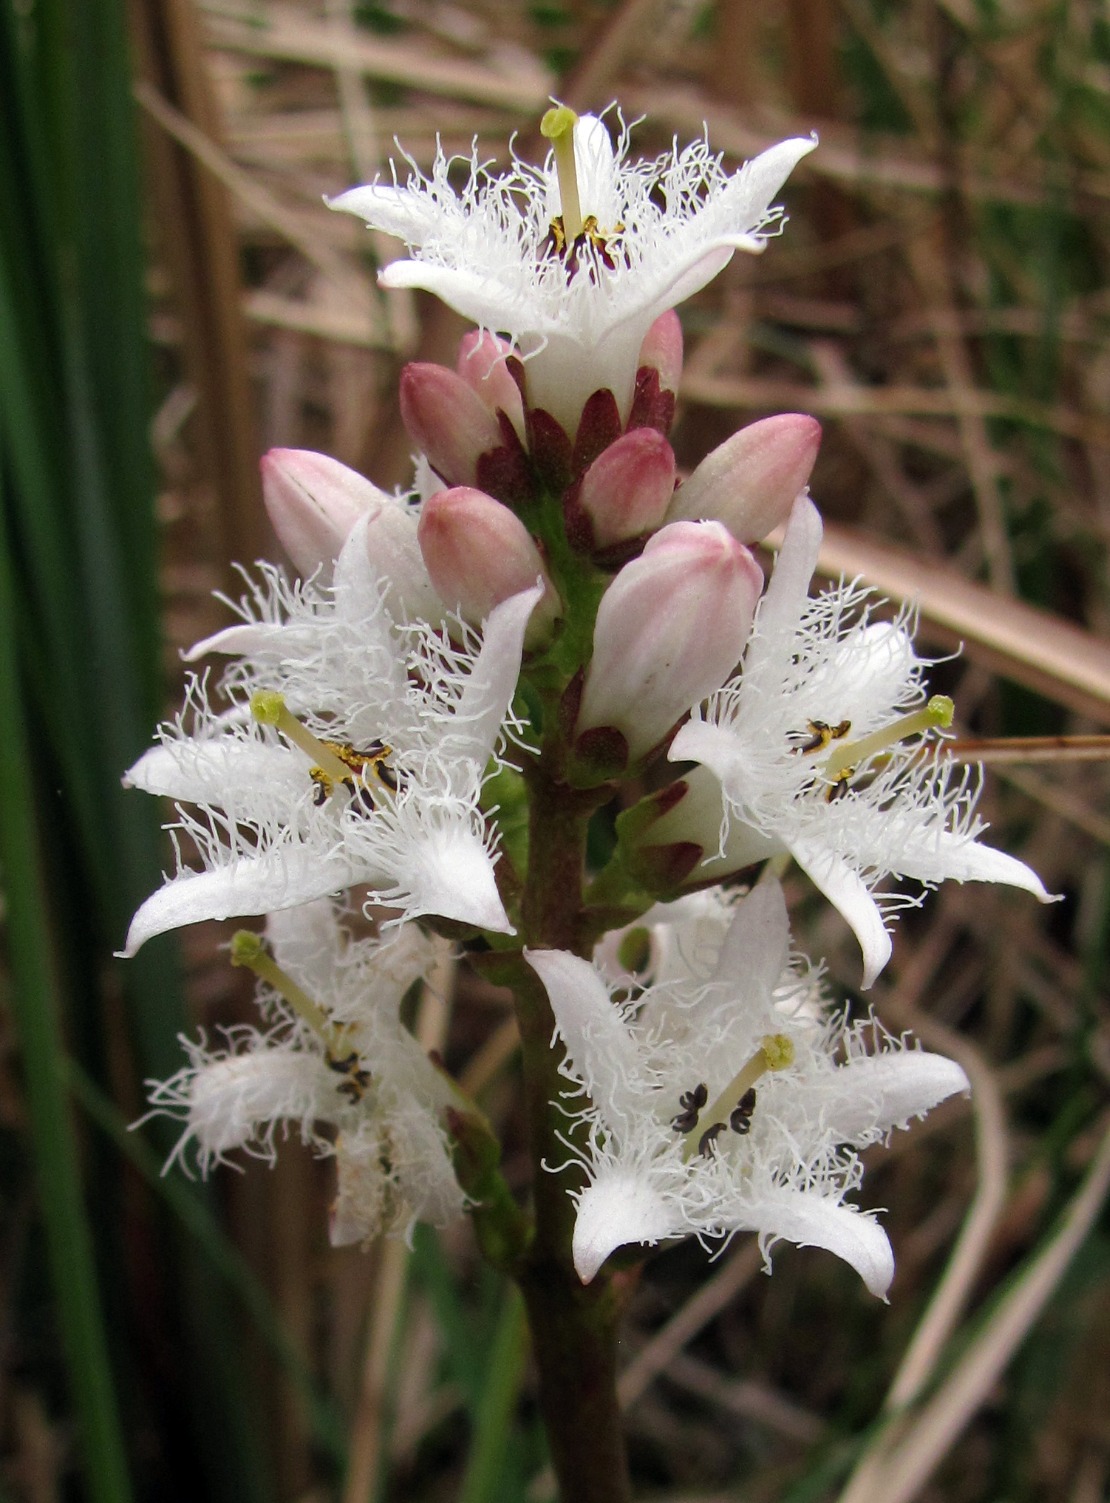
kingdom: Plantae
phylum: Tracheophyta
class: Magnoliopsida
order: Asterales
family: Menyanthaceae
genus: Menyanthes
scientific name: Menyanthes trifoliata
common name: Bukkeblad
